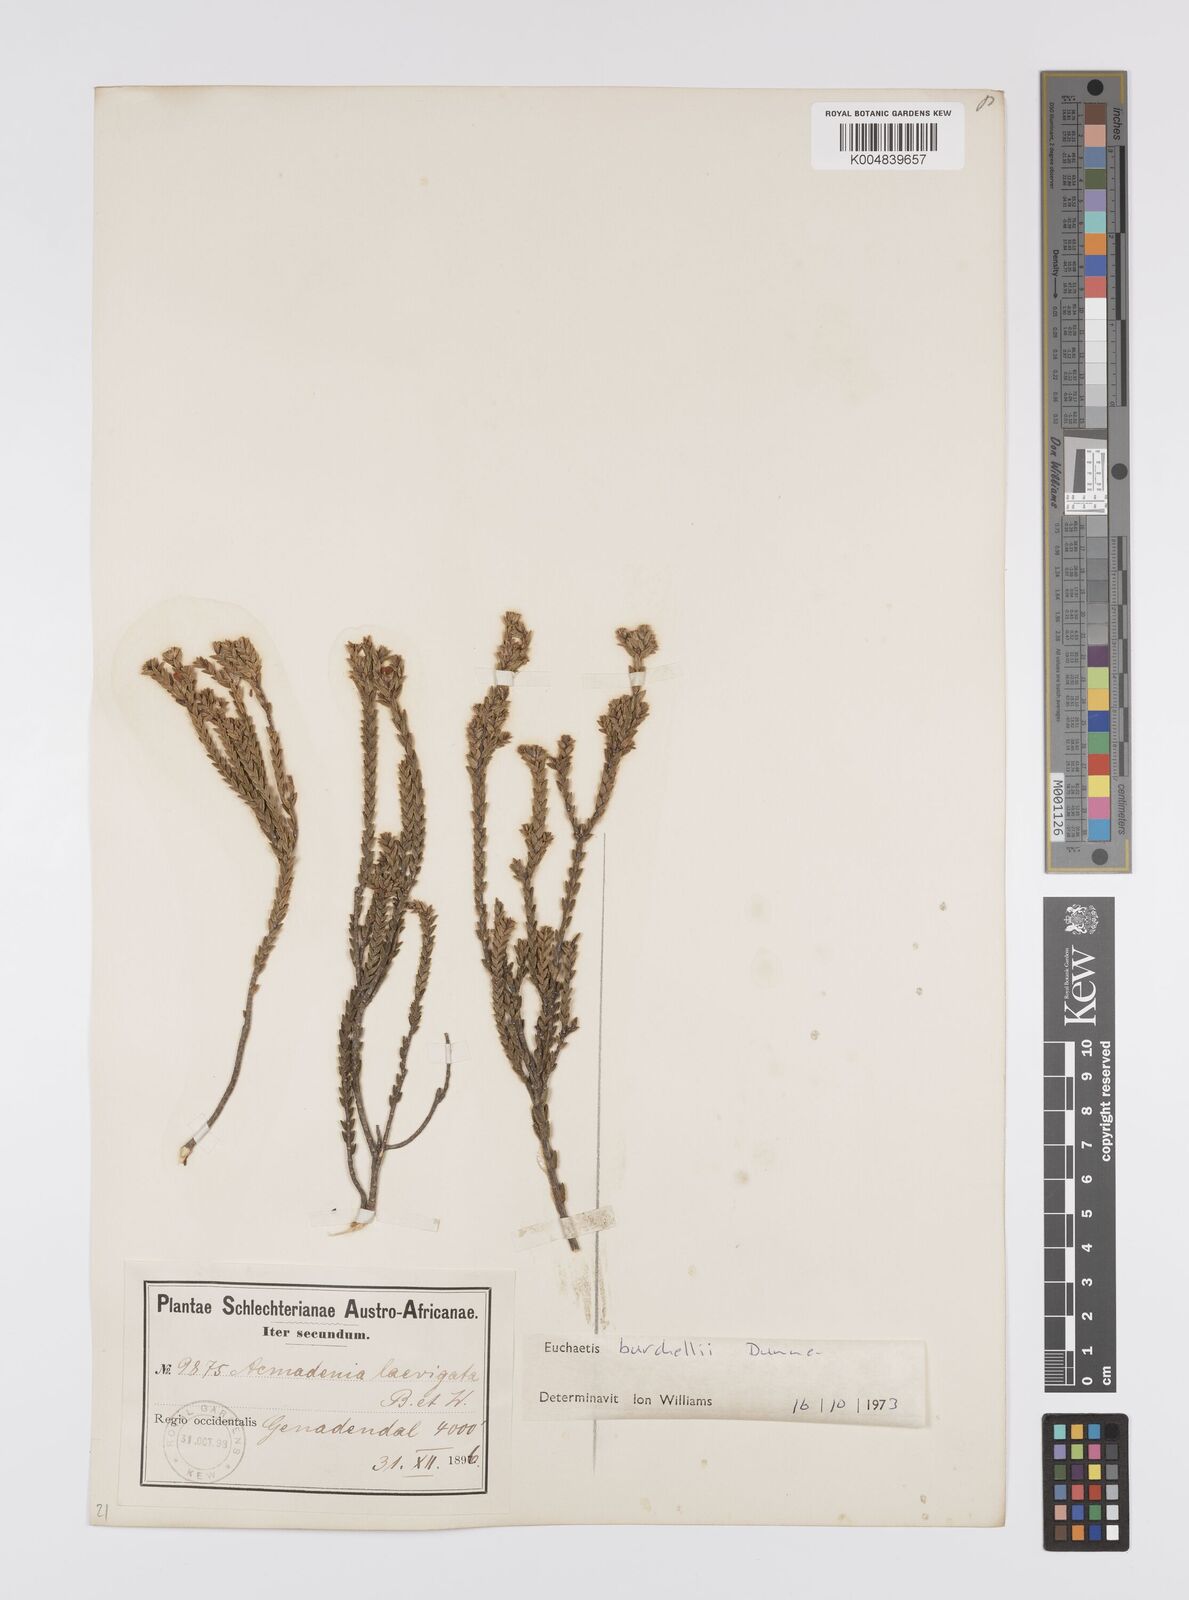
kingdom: Plantae
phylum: Tracheophyta
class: Magnoliopsida
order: Sapindales
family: Rutaceae
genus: Euchaetis
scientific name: Euchaetis burchellii
